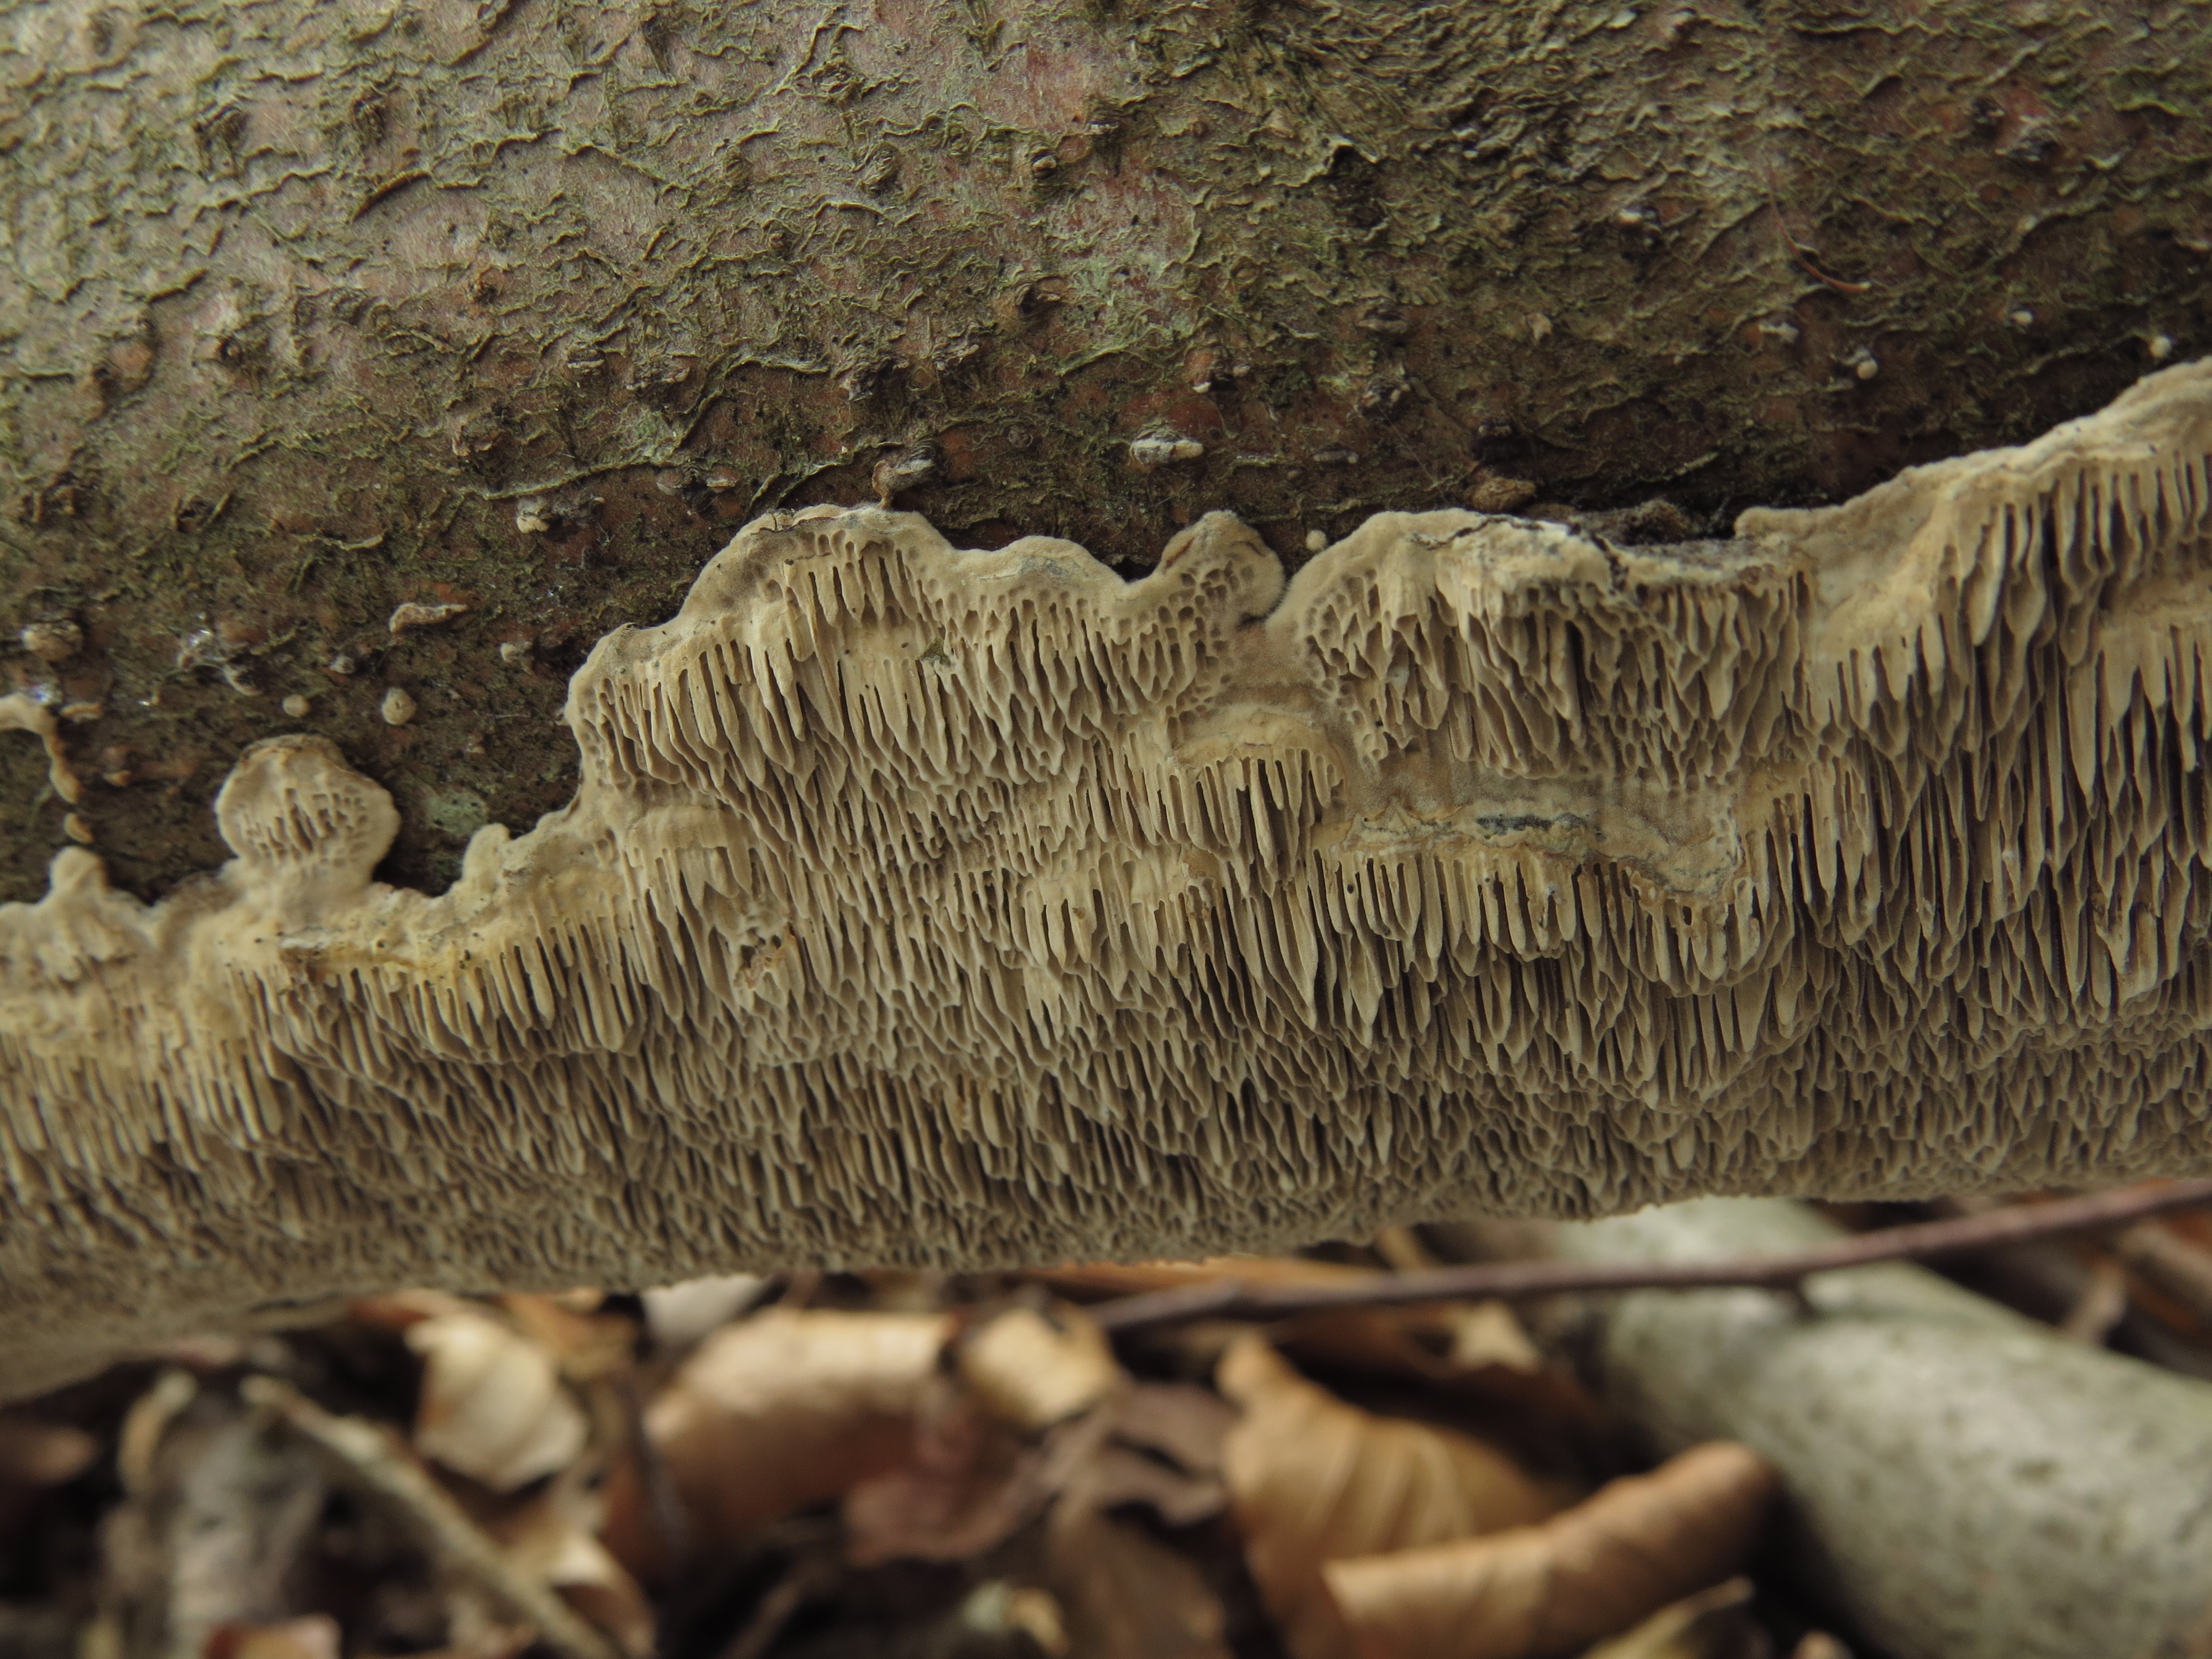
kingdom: Fungi
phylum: Basidiomycota
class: Agaricomycetes
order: Polyporales
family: Polyporaceae
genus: Podofomes
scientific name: Podofomes mollis
